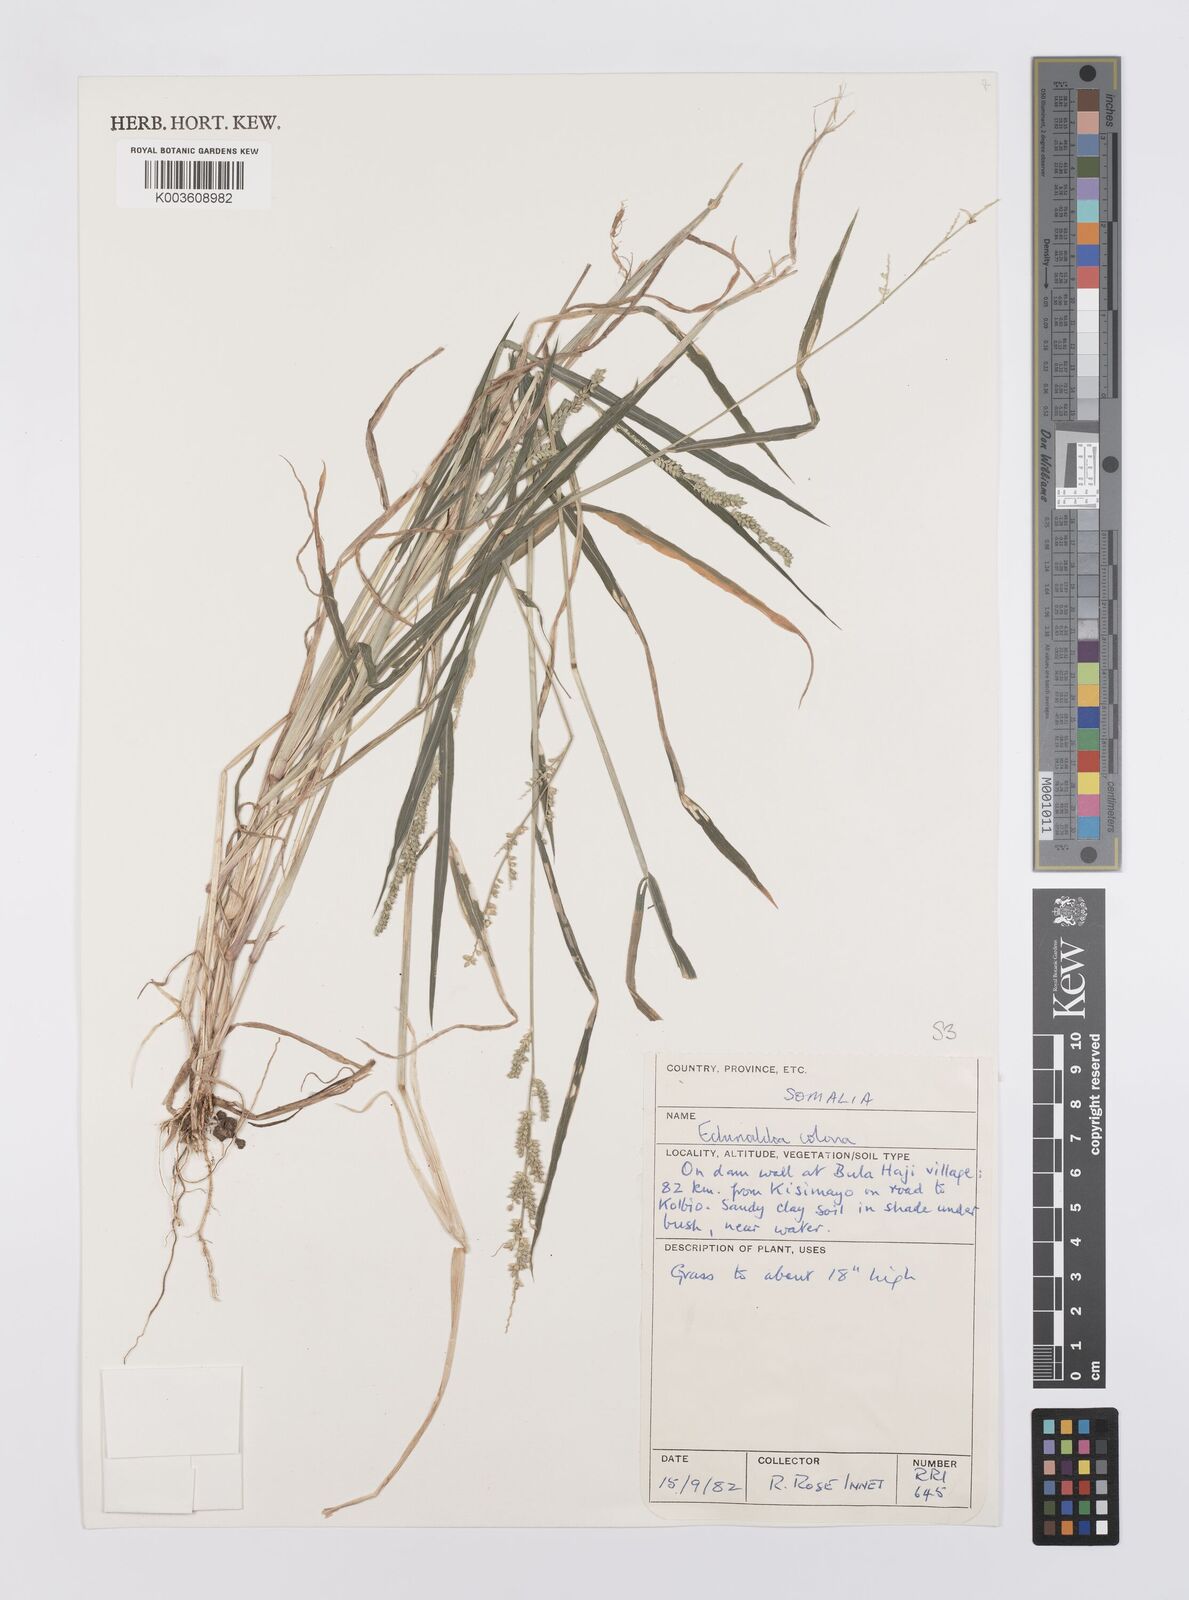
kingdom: Plantae
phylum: Tracheophyta
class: Liliopsida
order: Poales
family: Poaceae
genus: Echinochloa
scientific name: Echinochloa colonum
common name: Jungle rice
